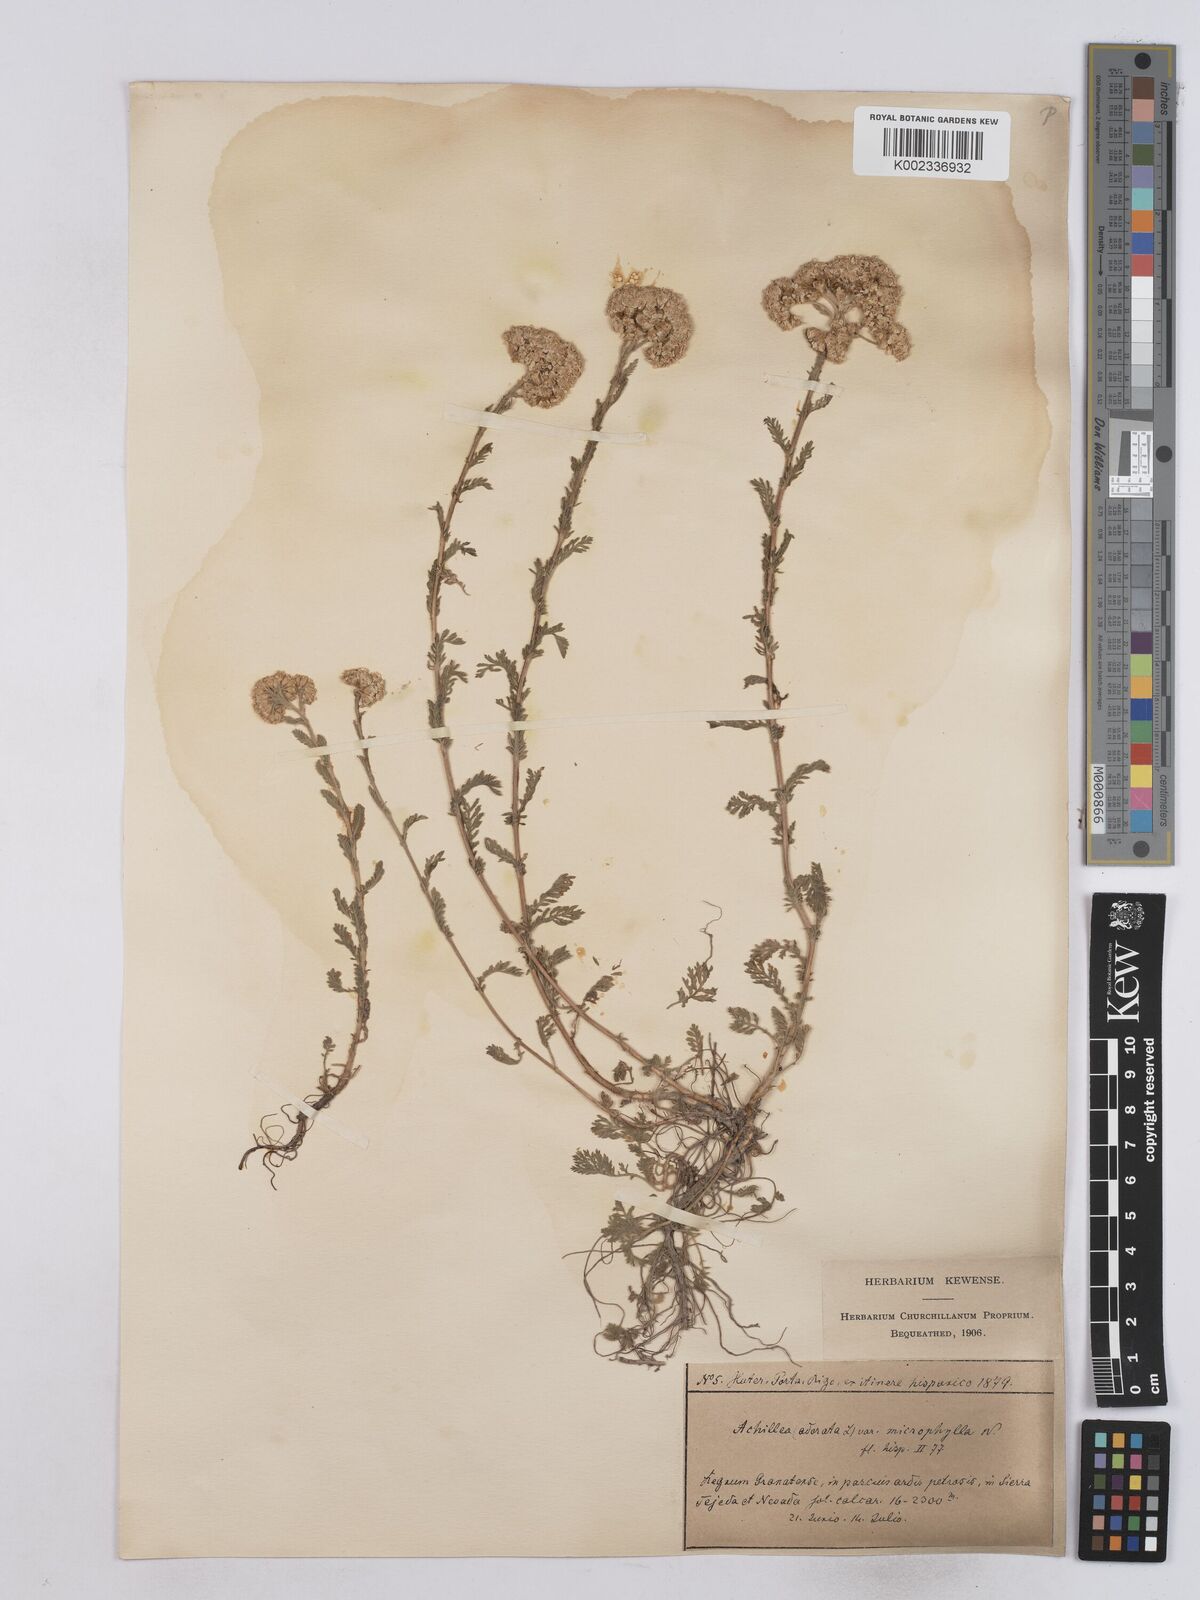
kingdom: Plantae
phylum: Tracheophyta
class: Magnoliopsida
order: Asterales
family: Asteraceae
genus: Achillea
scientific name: Achillea odorata
